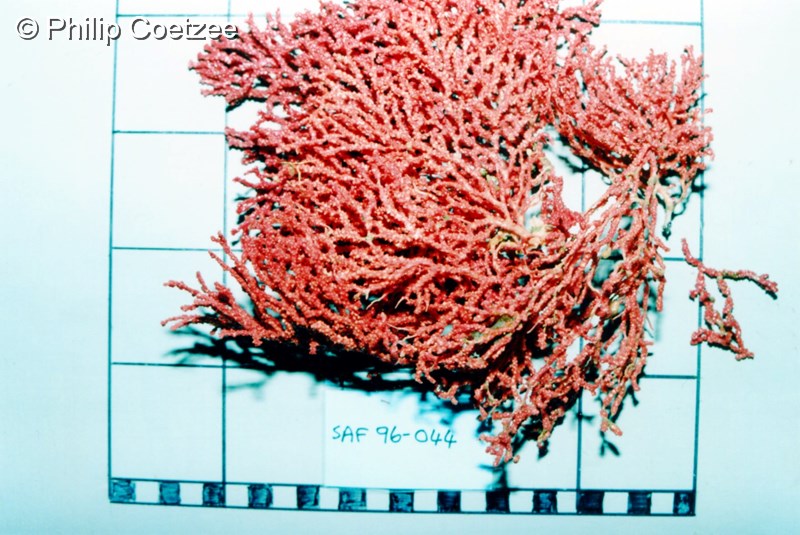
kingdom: Animalia
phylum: Cnidaria
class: Anthozoa
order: Malacalcyonacea
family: Melithaeidae
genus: Melithaea
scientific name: Melithaea rubra
